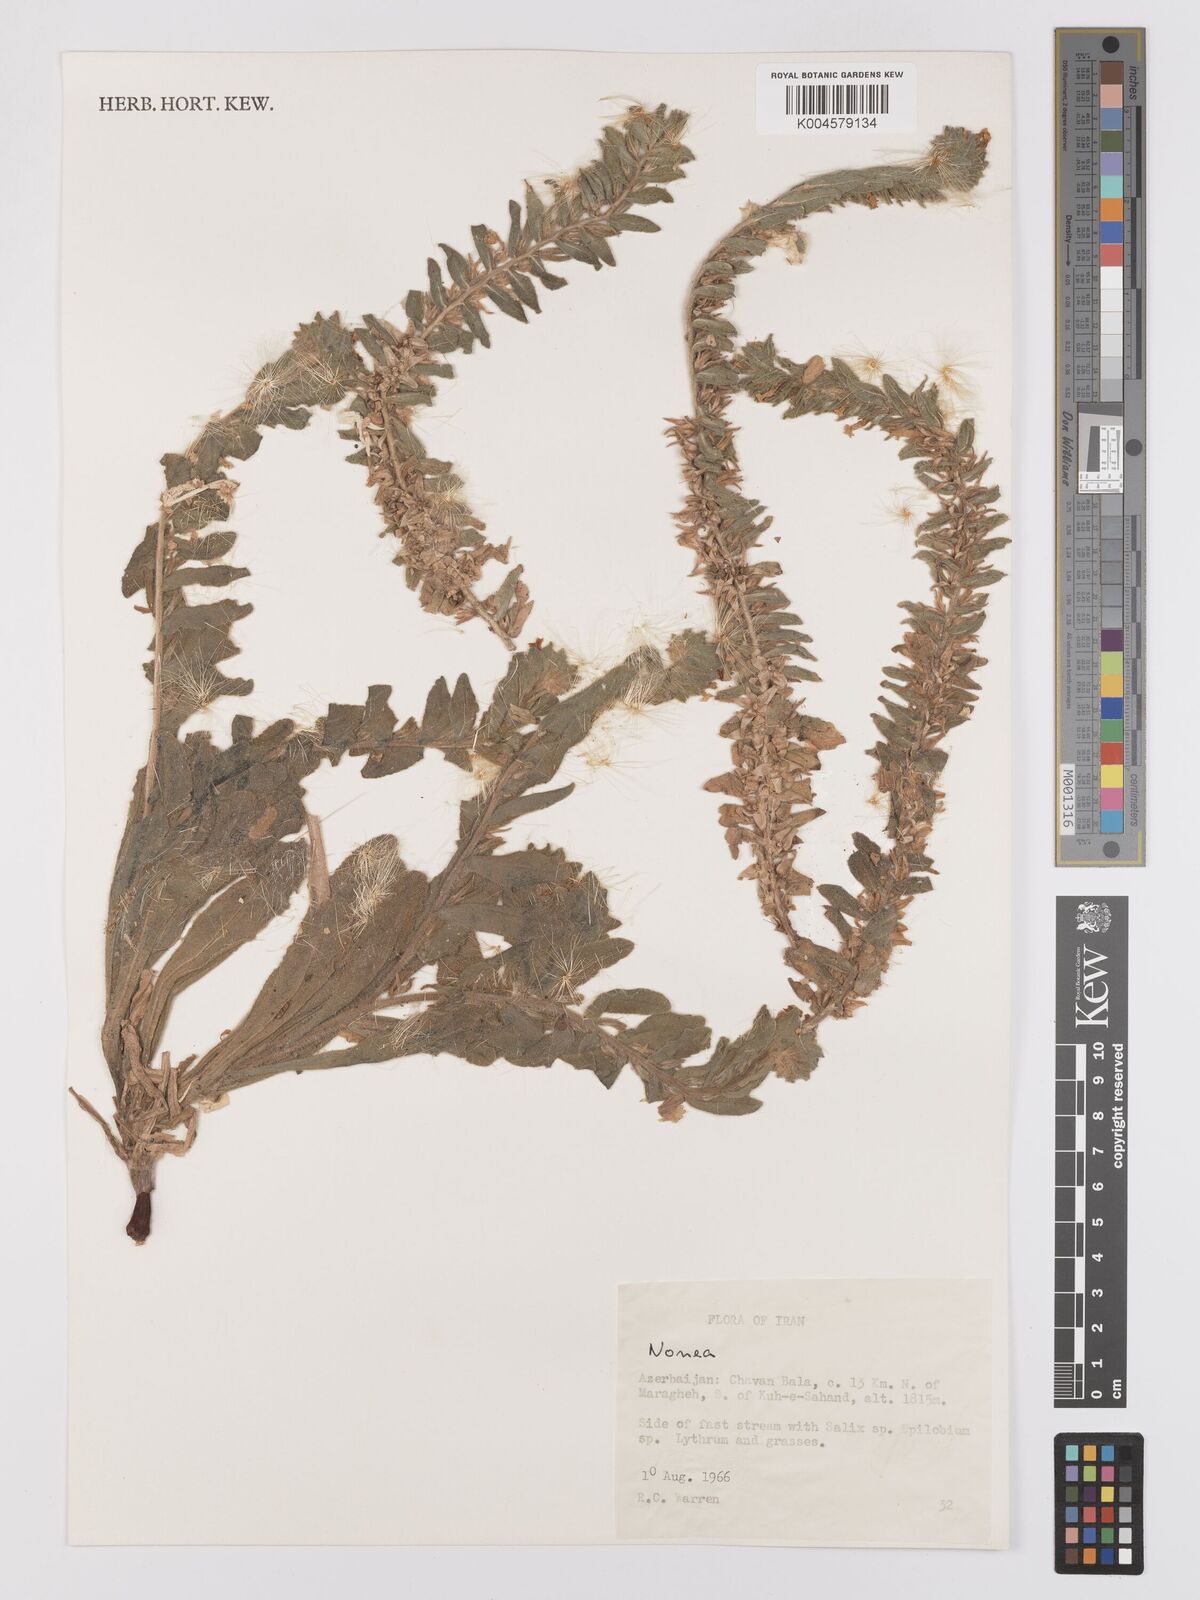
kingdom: Plantae
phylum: Tracheophyta
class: Magnoliopsida
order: Boraginales
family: Boraginaceae
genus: Nonea
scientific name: Nonea
